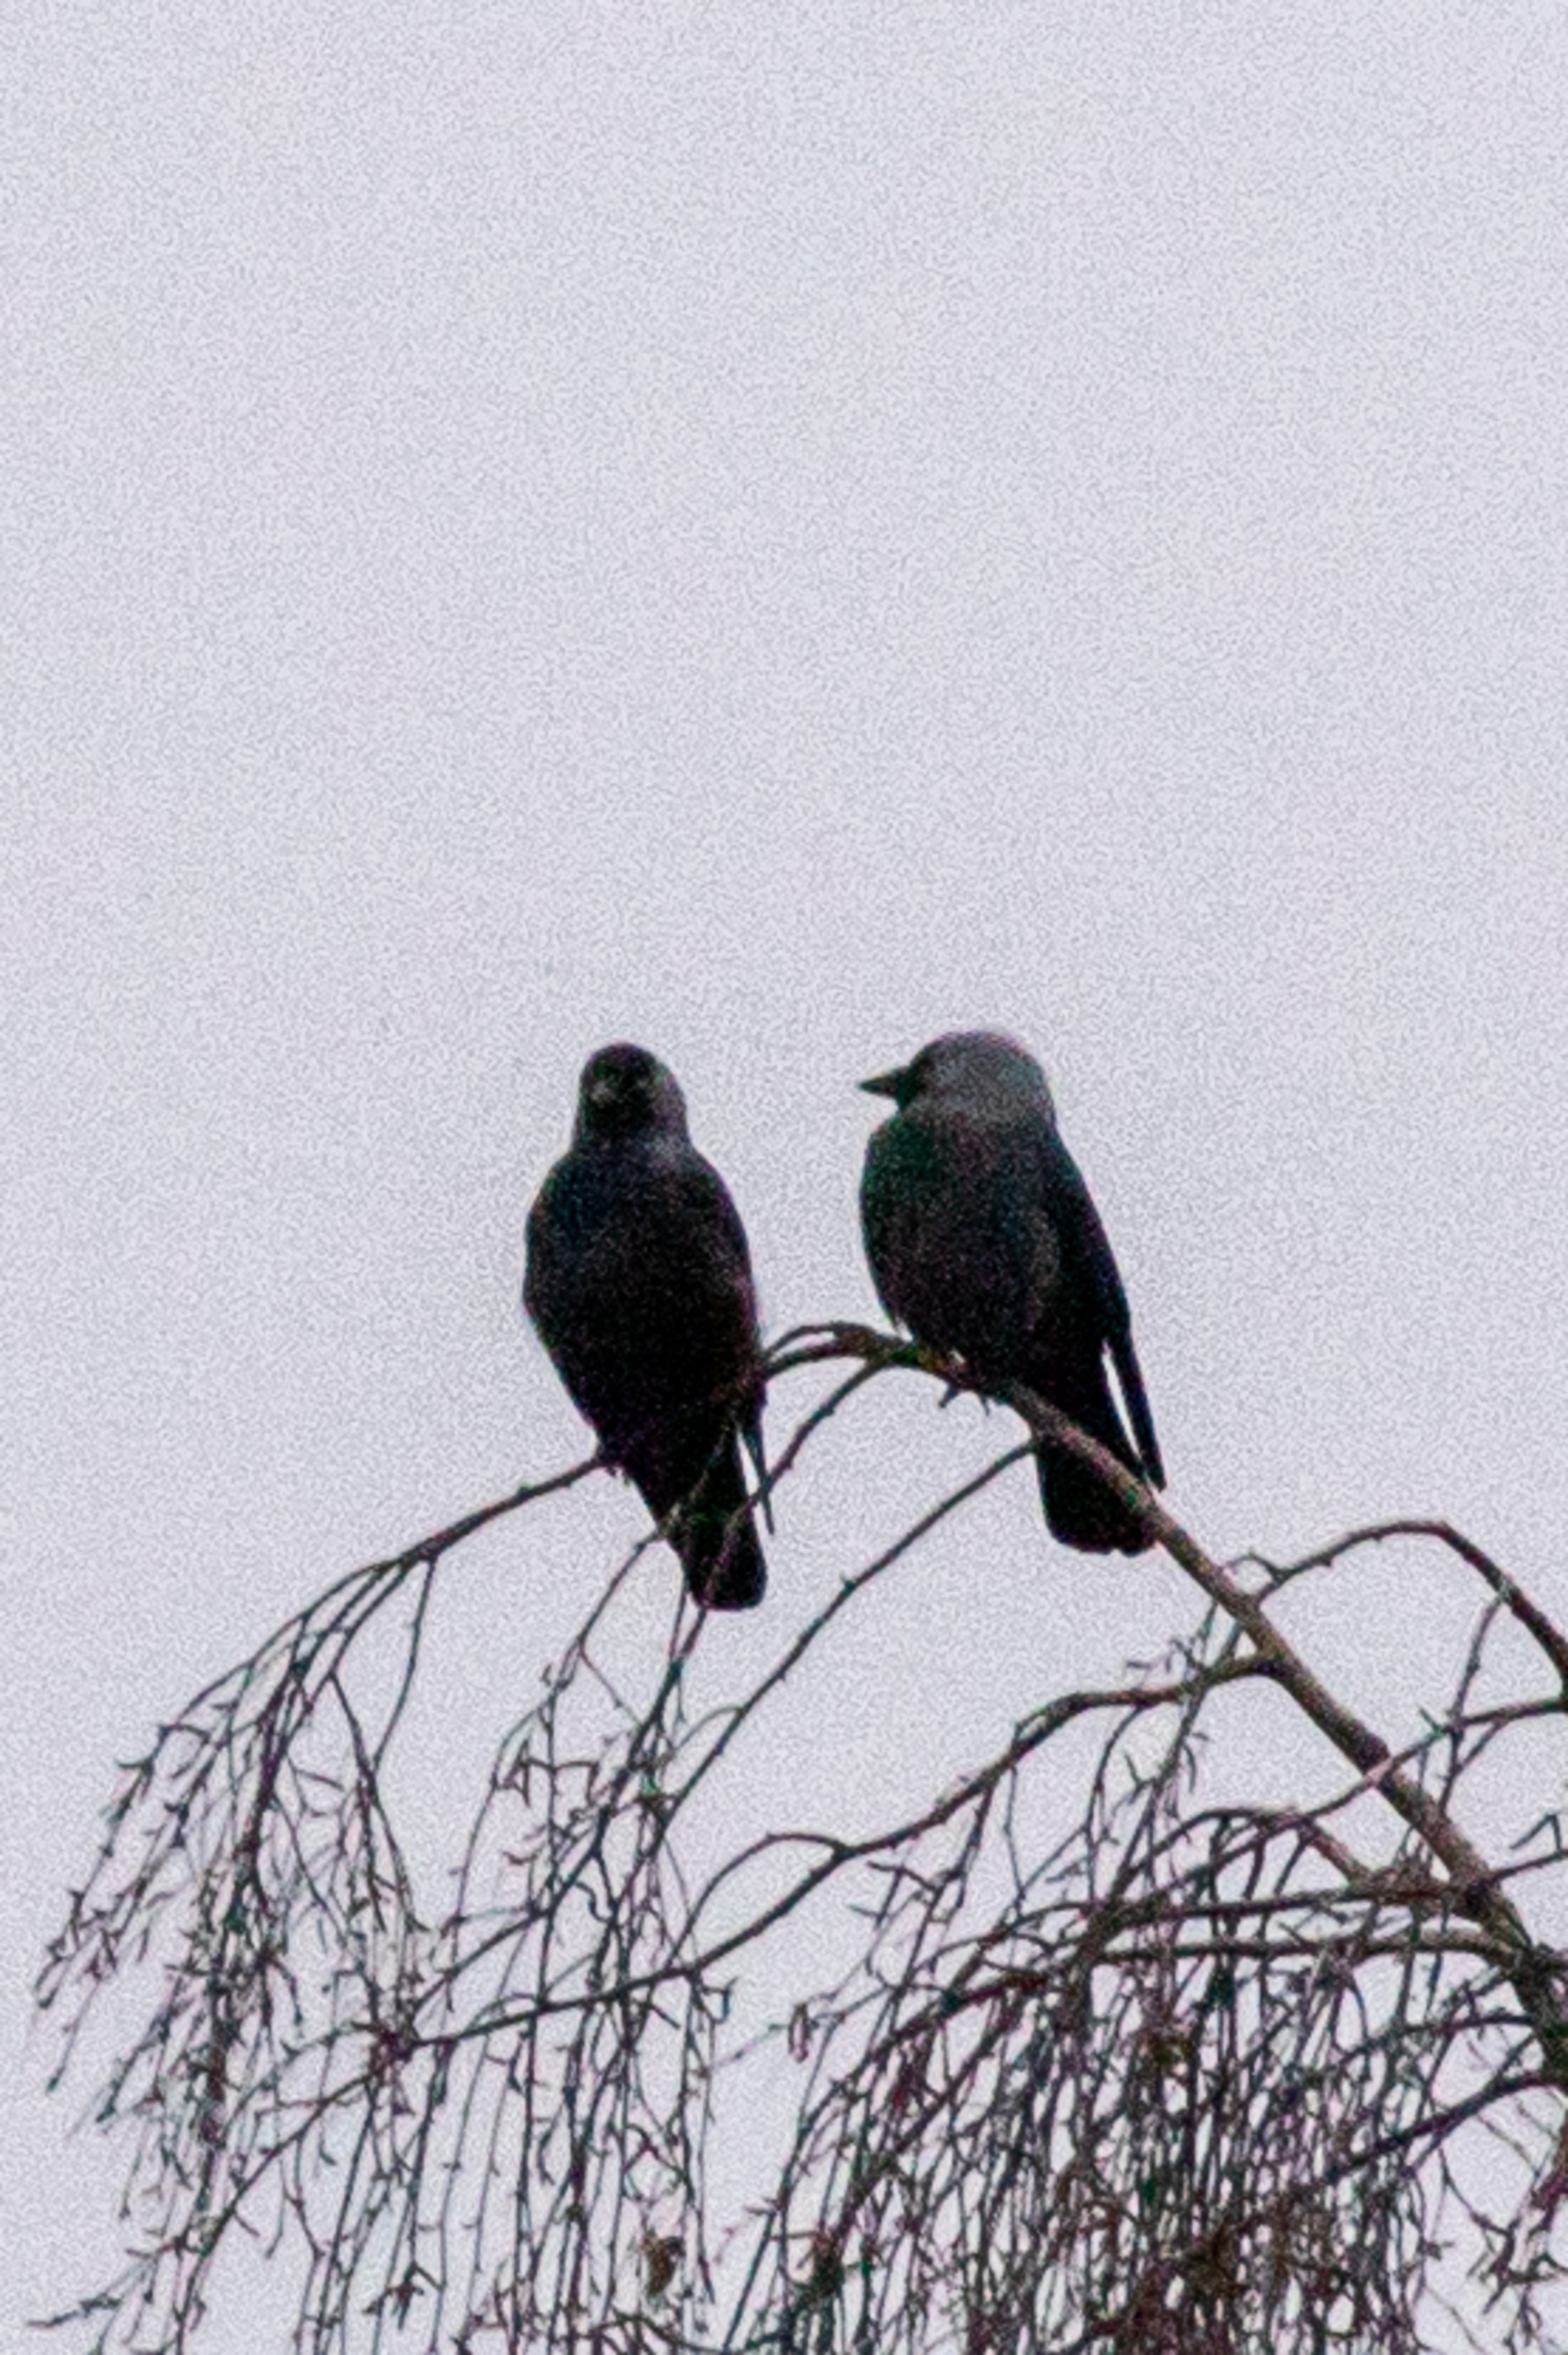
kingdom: Animalia
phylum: Chordata
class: Aves
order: Passeriformes
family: Corvidae
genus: Coloeus
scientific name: Coloeus monedula
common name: Allike
